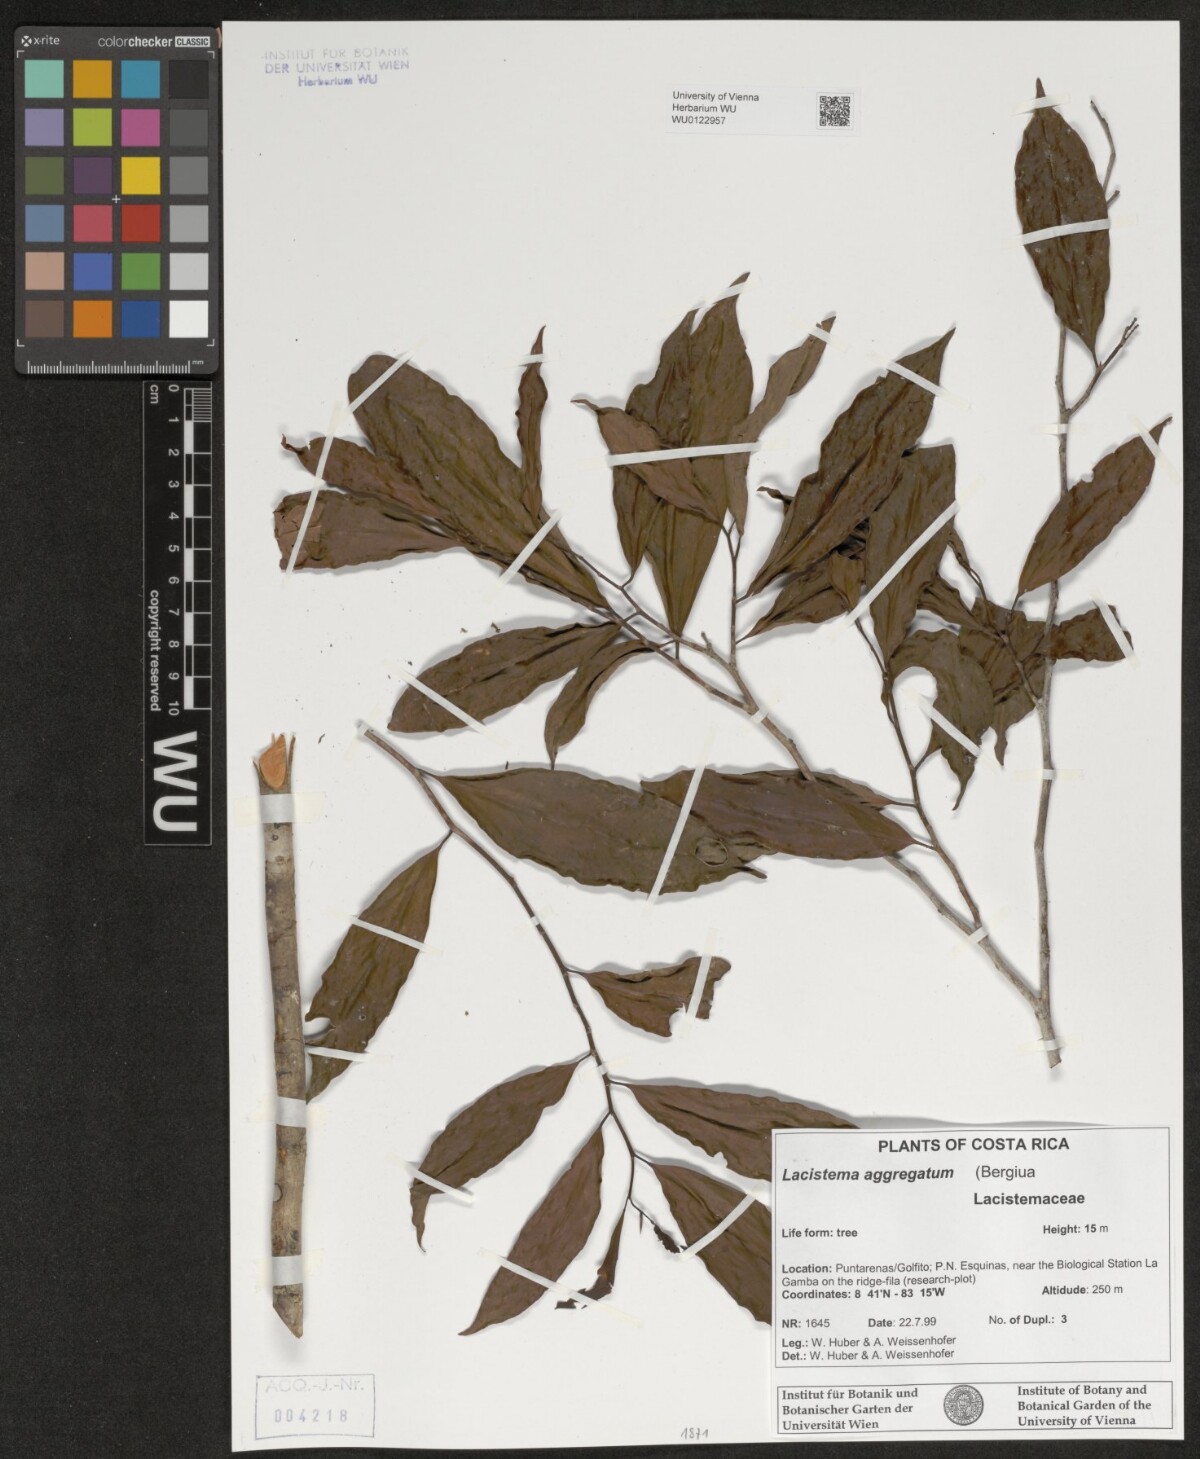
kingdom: Plantae
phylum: Tracheophyta
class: Magnoliopsida
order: Malpighiales
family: Lacistemataceae
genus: Lacistema
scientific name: Lacistema aggregatum
